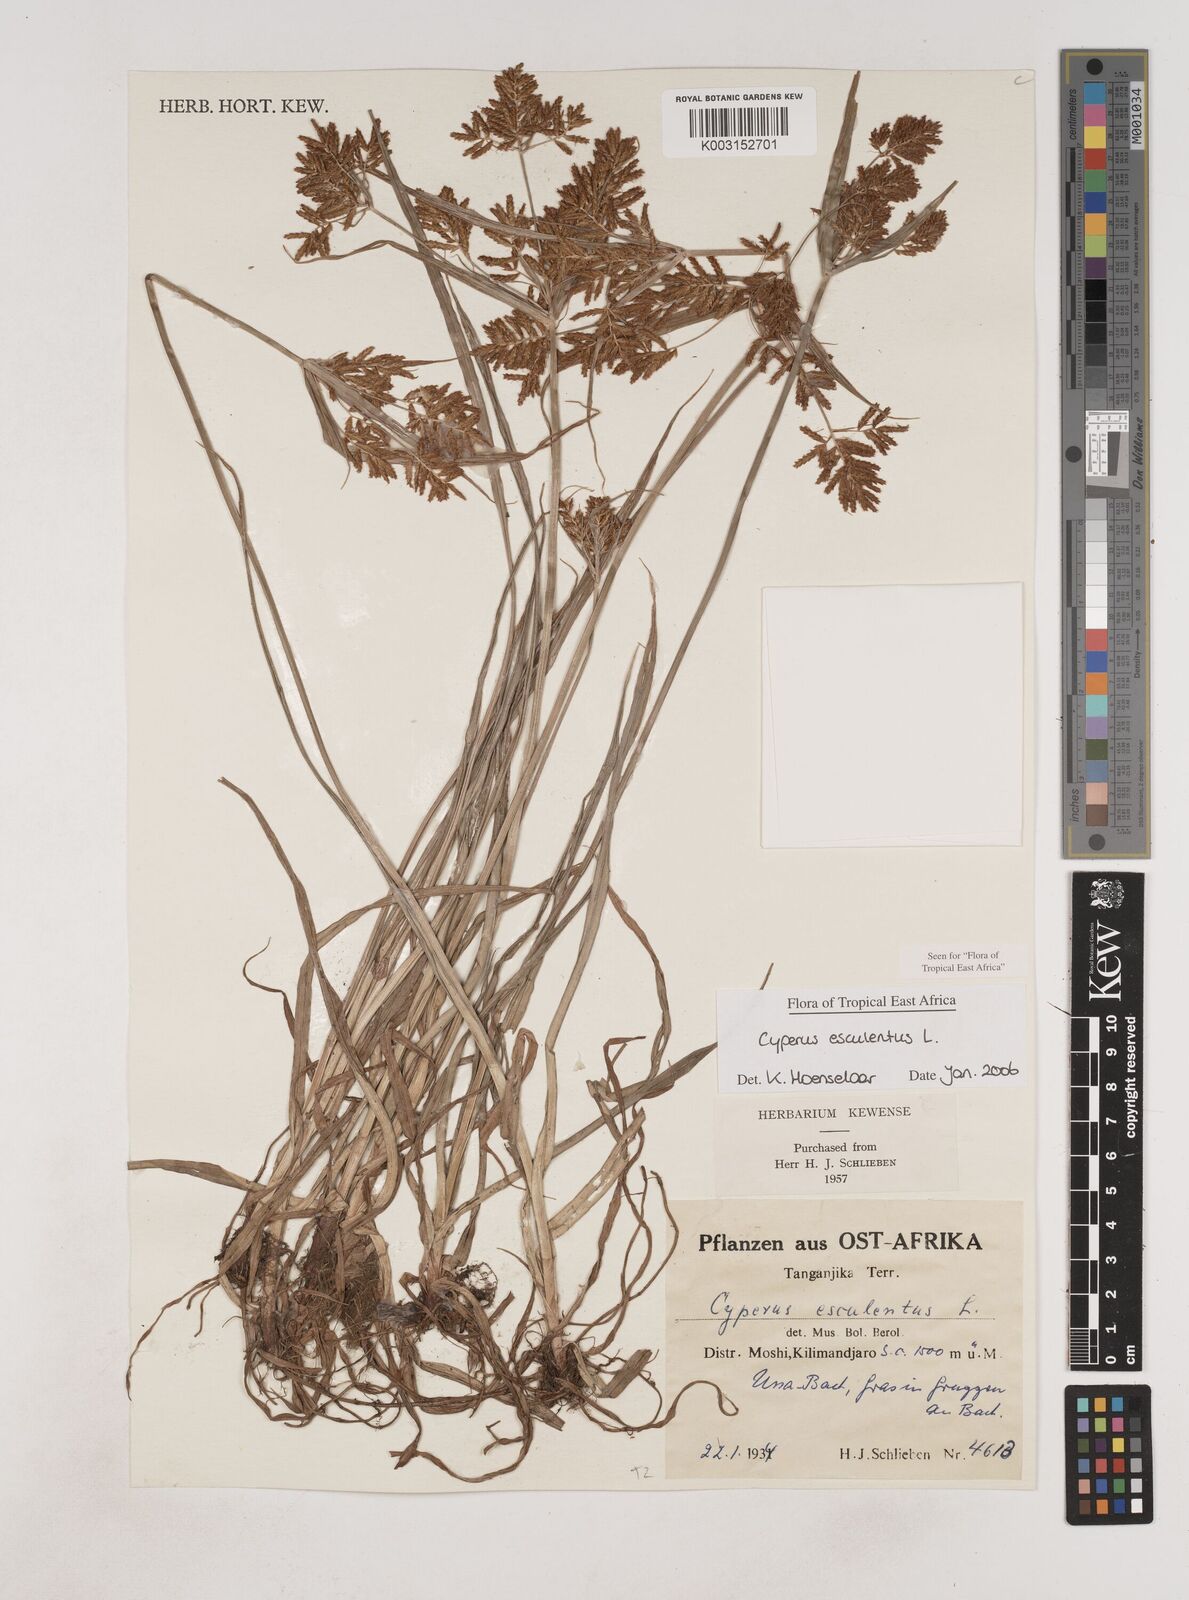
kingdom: Plantae
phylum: Tracheophyta
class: Liliopsida
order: Poales
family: Cyperaceae
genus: Cyperus
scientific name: Cyperus esculentus
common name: Yellow nutsedge
